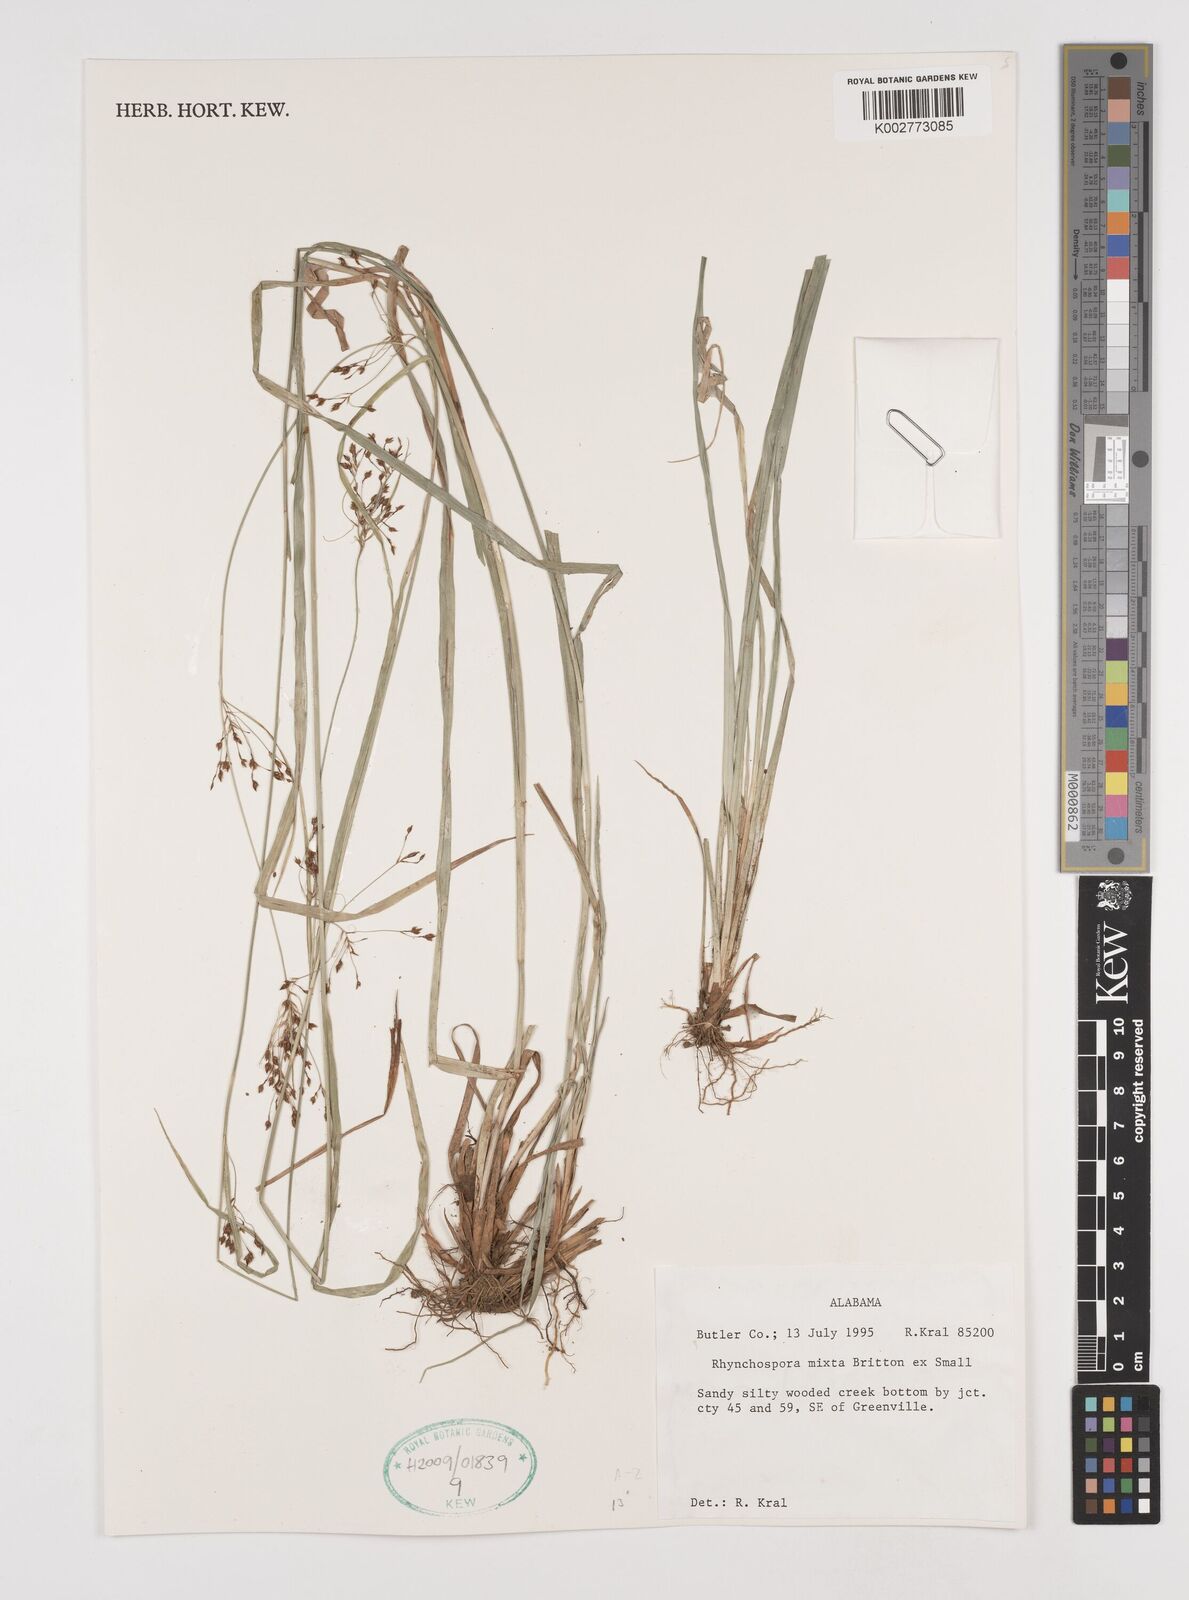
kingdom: Plantae
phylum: Tracheophyta
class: Liliopsida
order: Poales
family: Cyperaceae
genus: Rhynchospora
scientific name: Rhynchospora mixta
